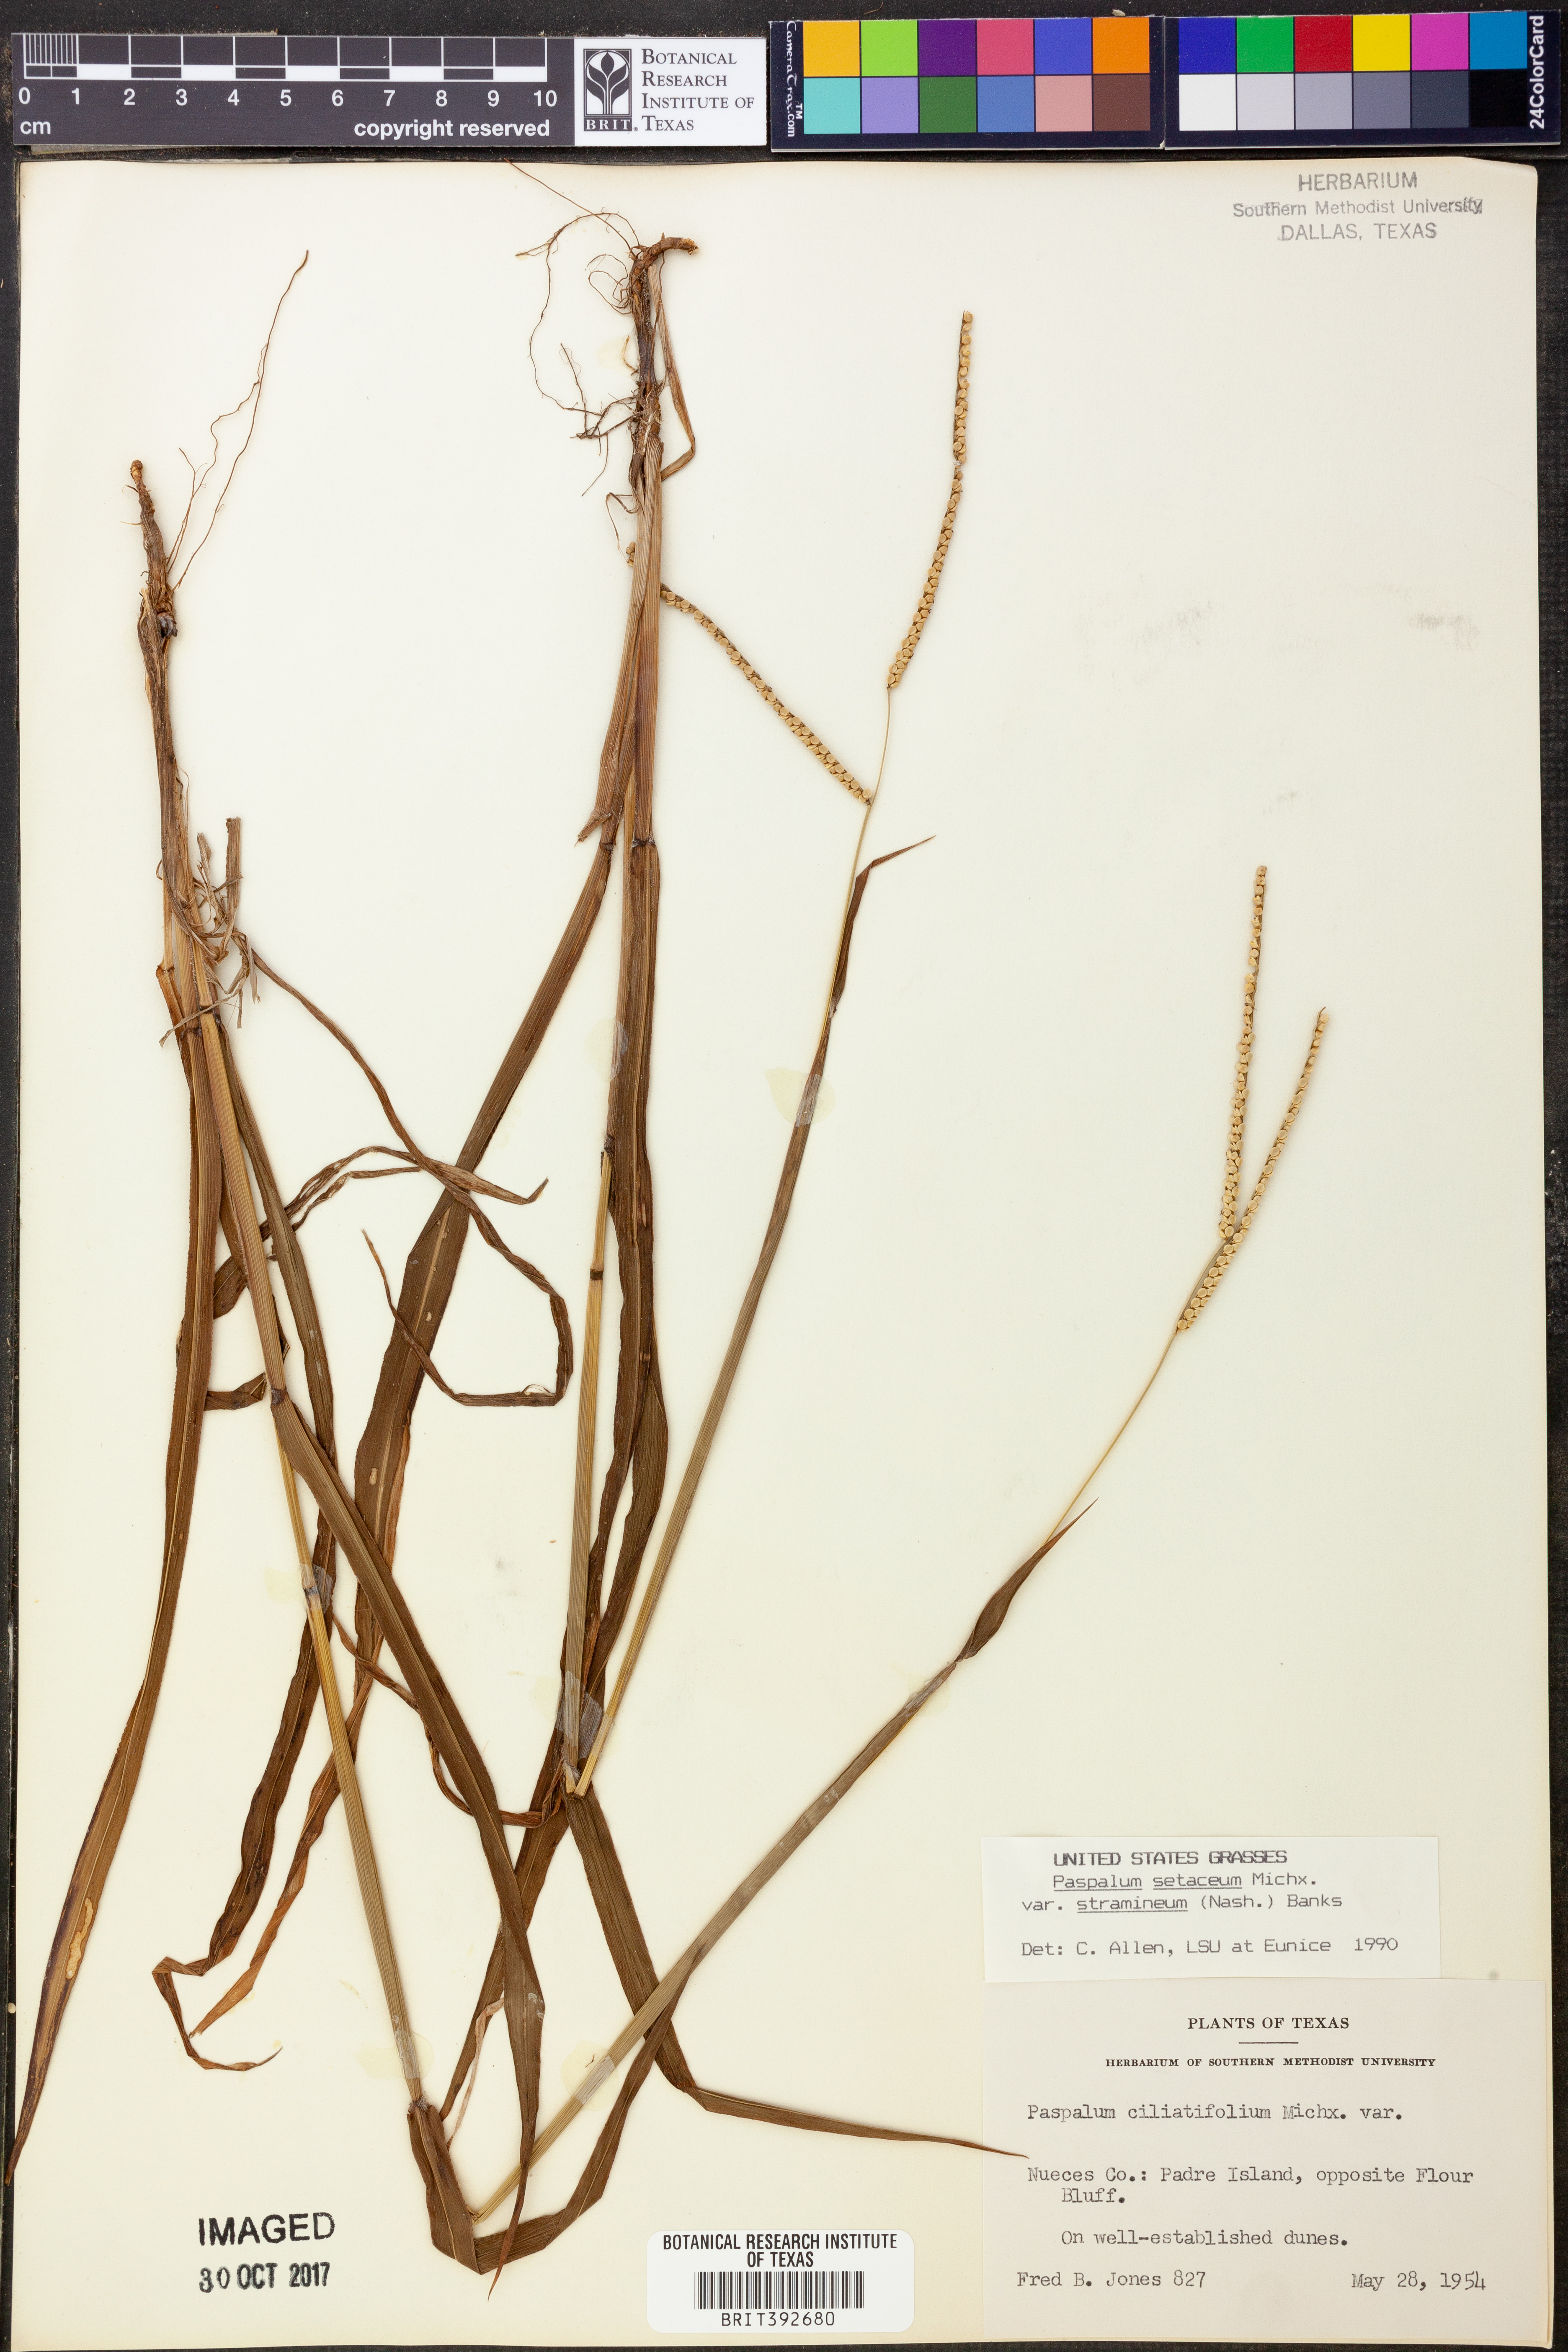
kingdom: Plantae
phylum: Tracheophyta
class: Liliopsida
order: Poales
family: Poaceae
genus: Paspalum
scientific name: Paspalum setaceum
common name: Slender paspalum
